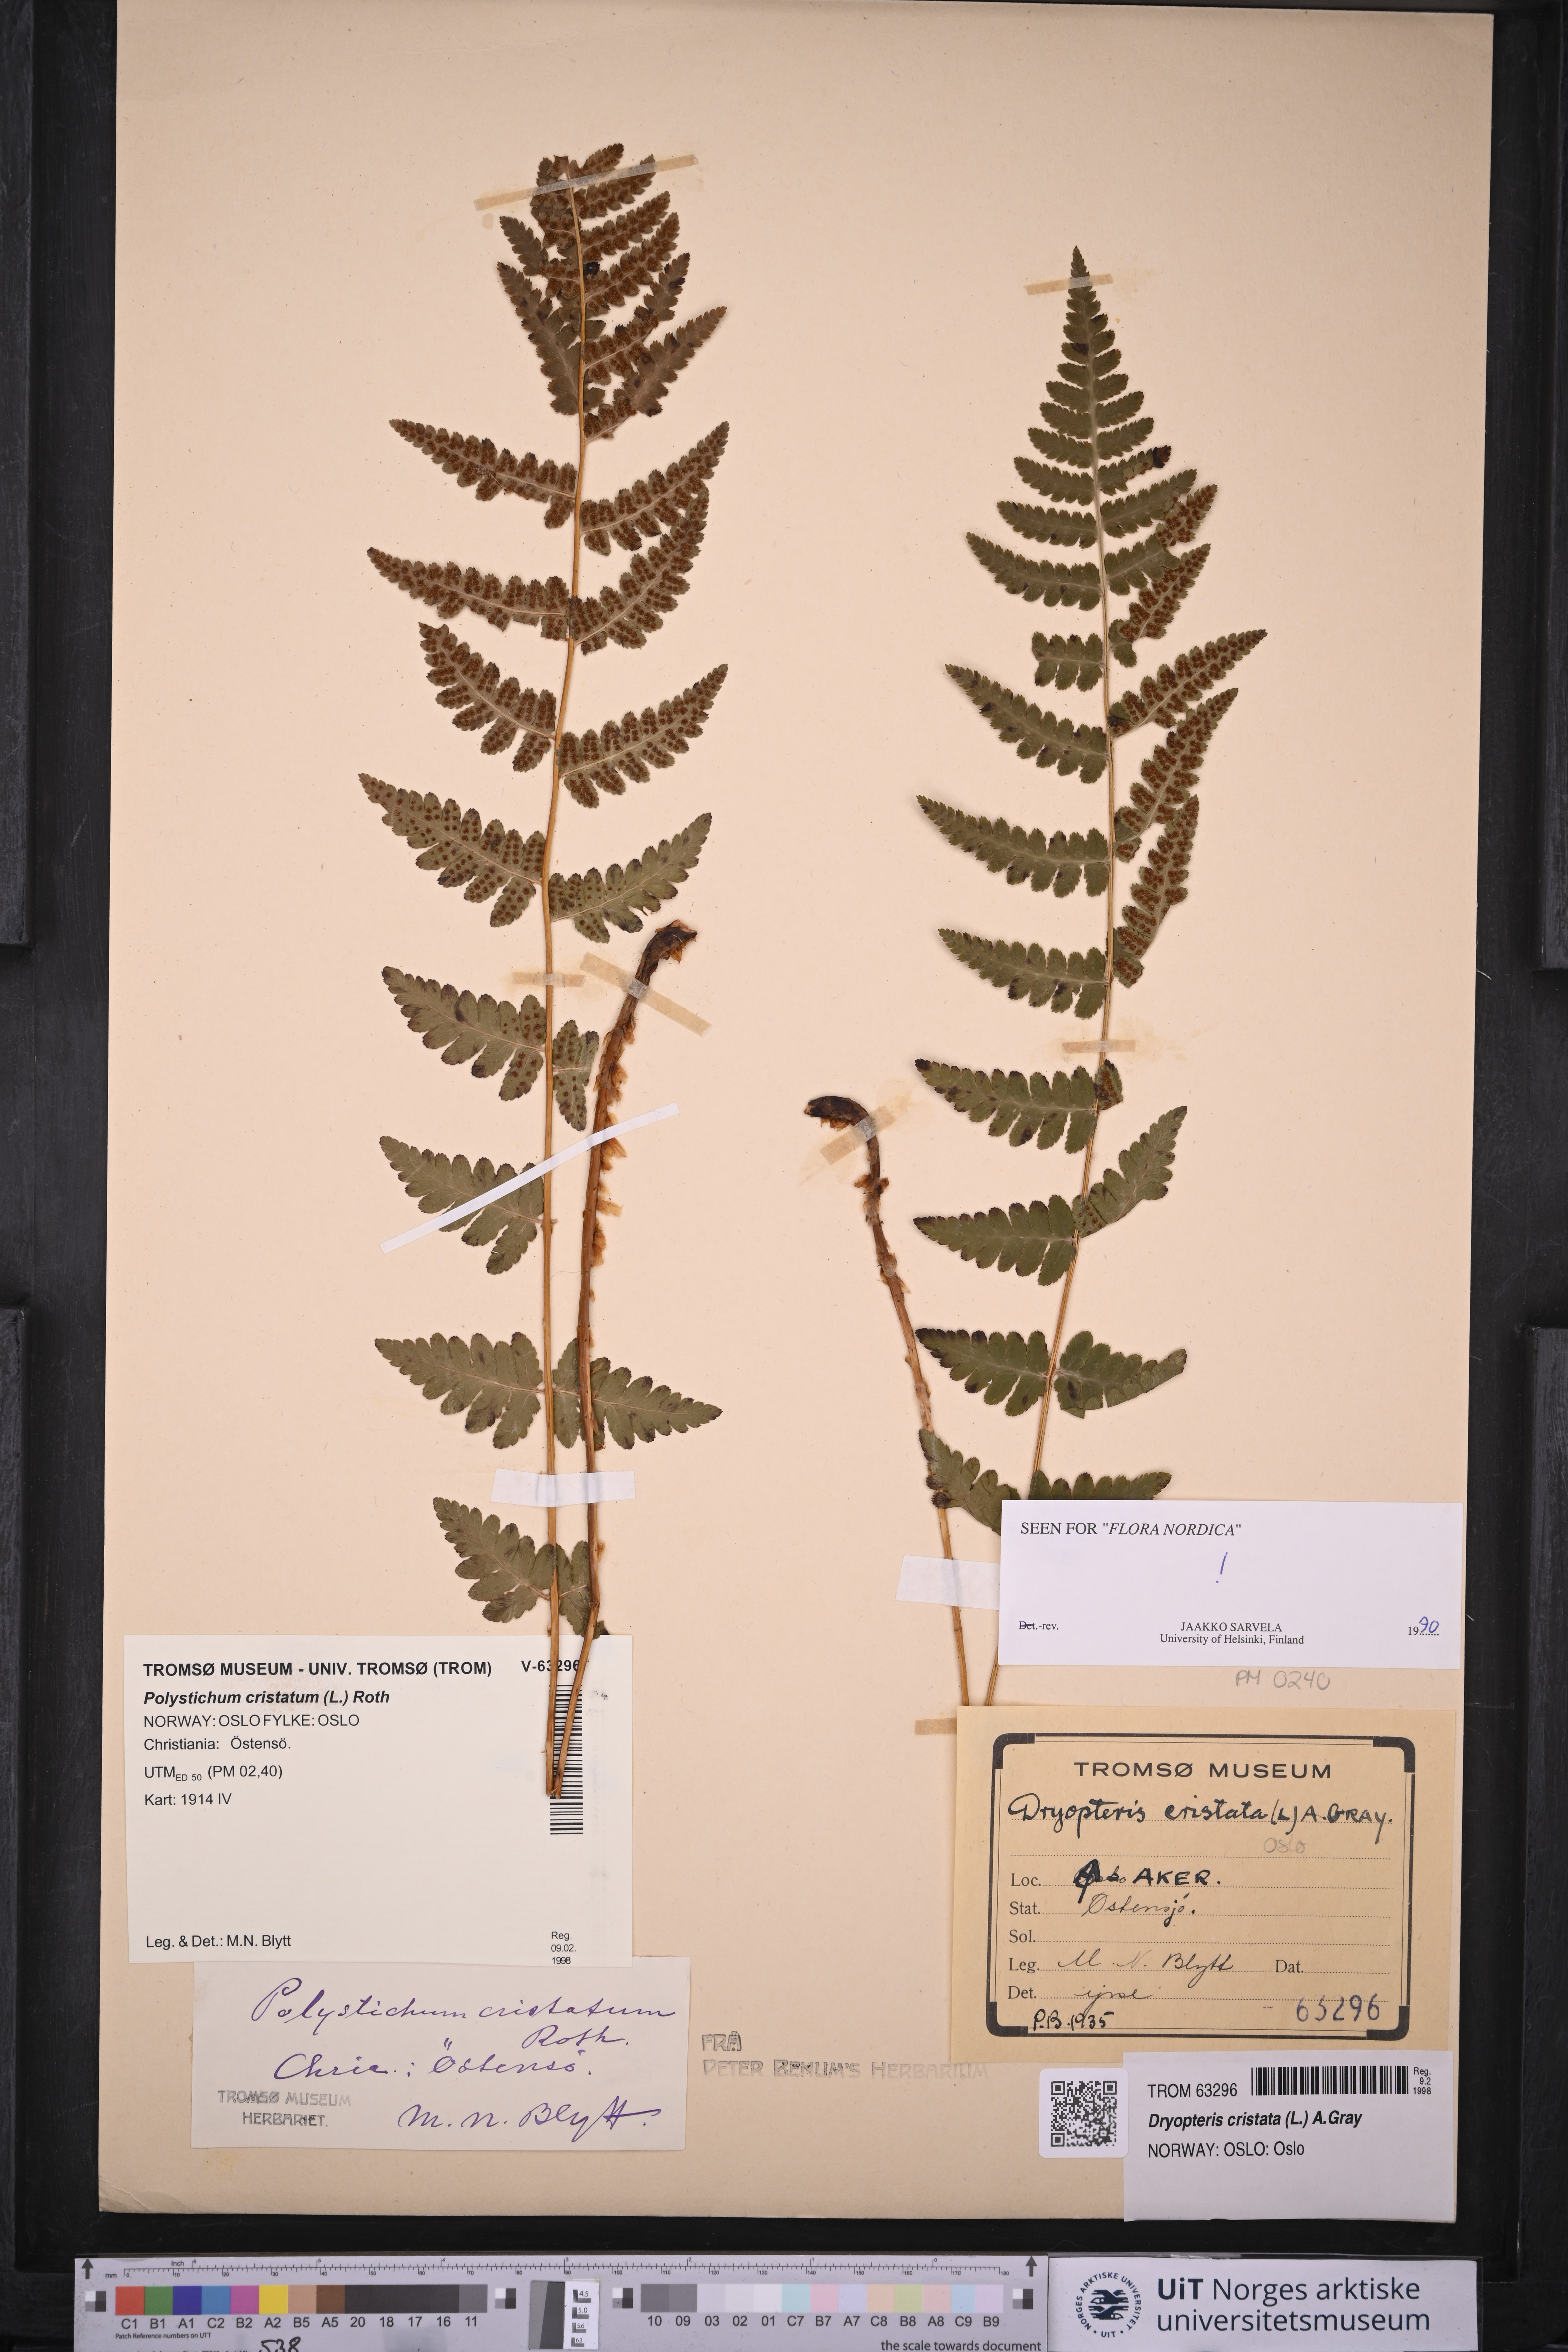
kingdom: Plantae
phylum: Tracheophyta
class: Polypodiopsida
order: Polypodiales
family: Dryopteridaceae
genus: Dryopteris
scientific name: Dryopteris cristata
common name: Crested wood fern
